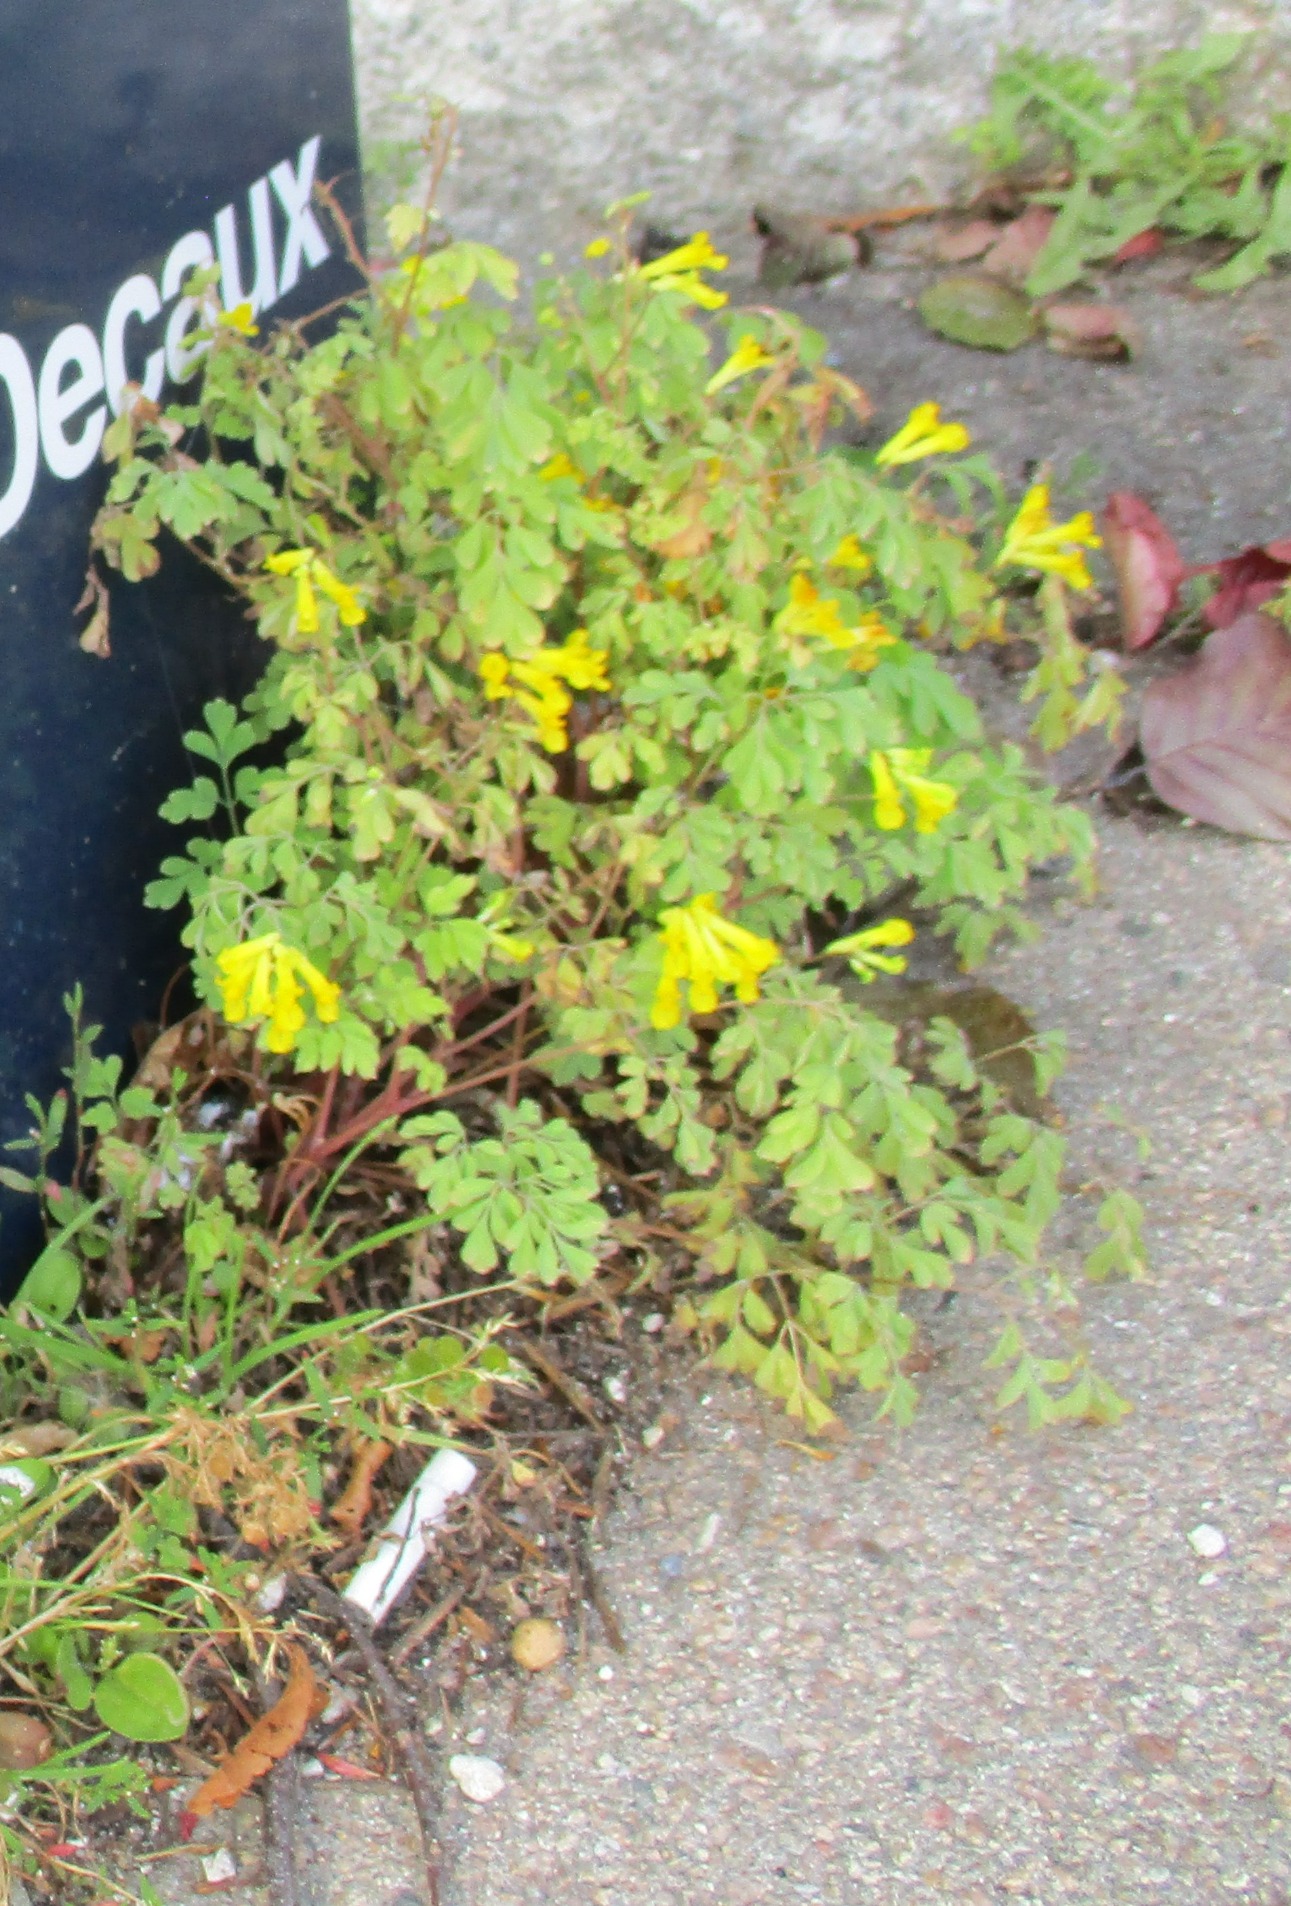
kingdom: Plantae
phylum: Tracheophyta
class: Magnoliopsida
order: Ranunculales
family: Papaveraceae
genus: Pseudofumaria
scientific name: Pseudofumaria lutea
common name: Gul lærkespore
